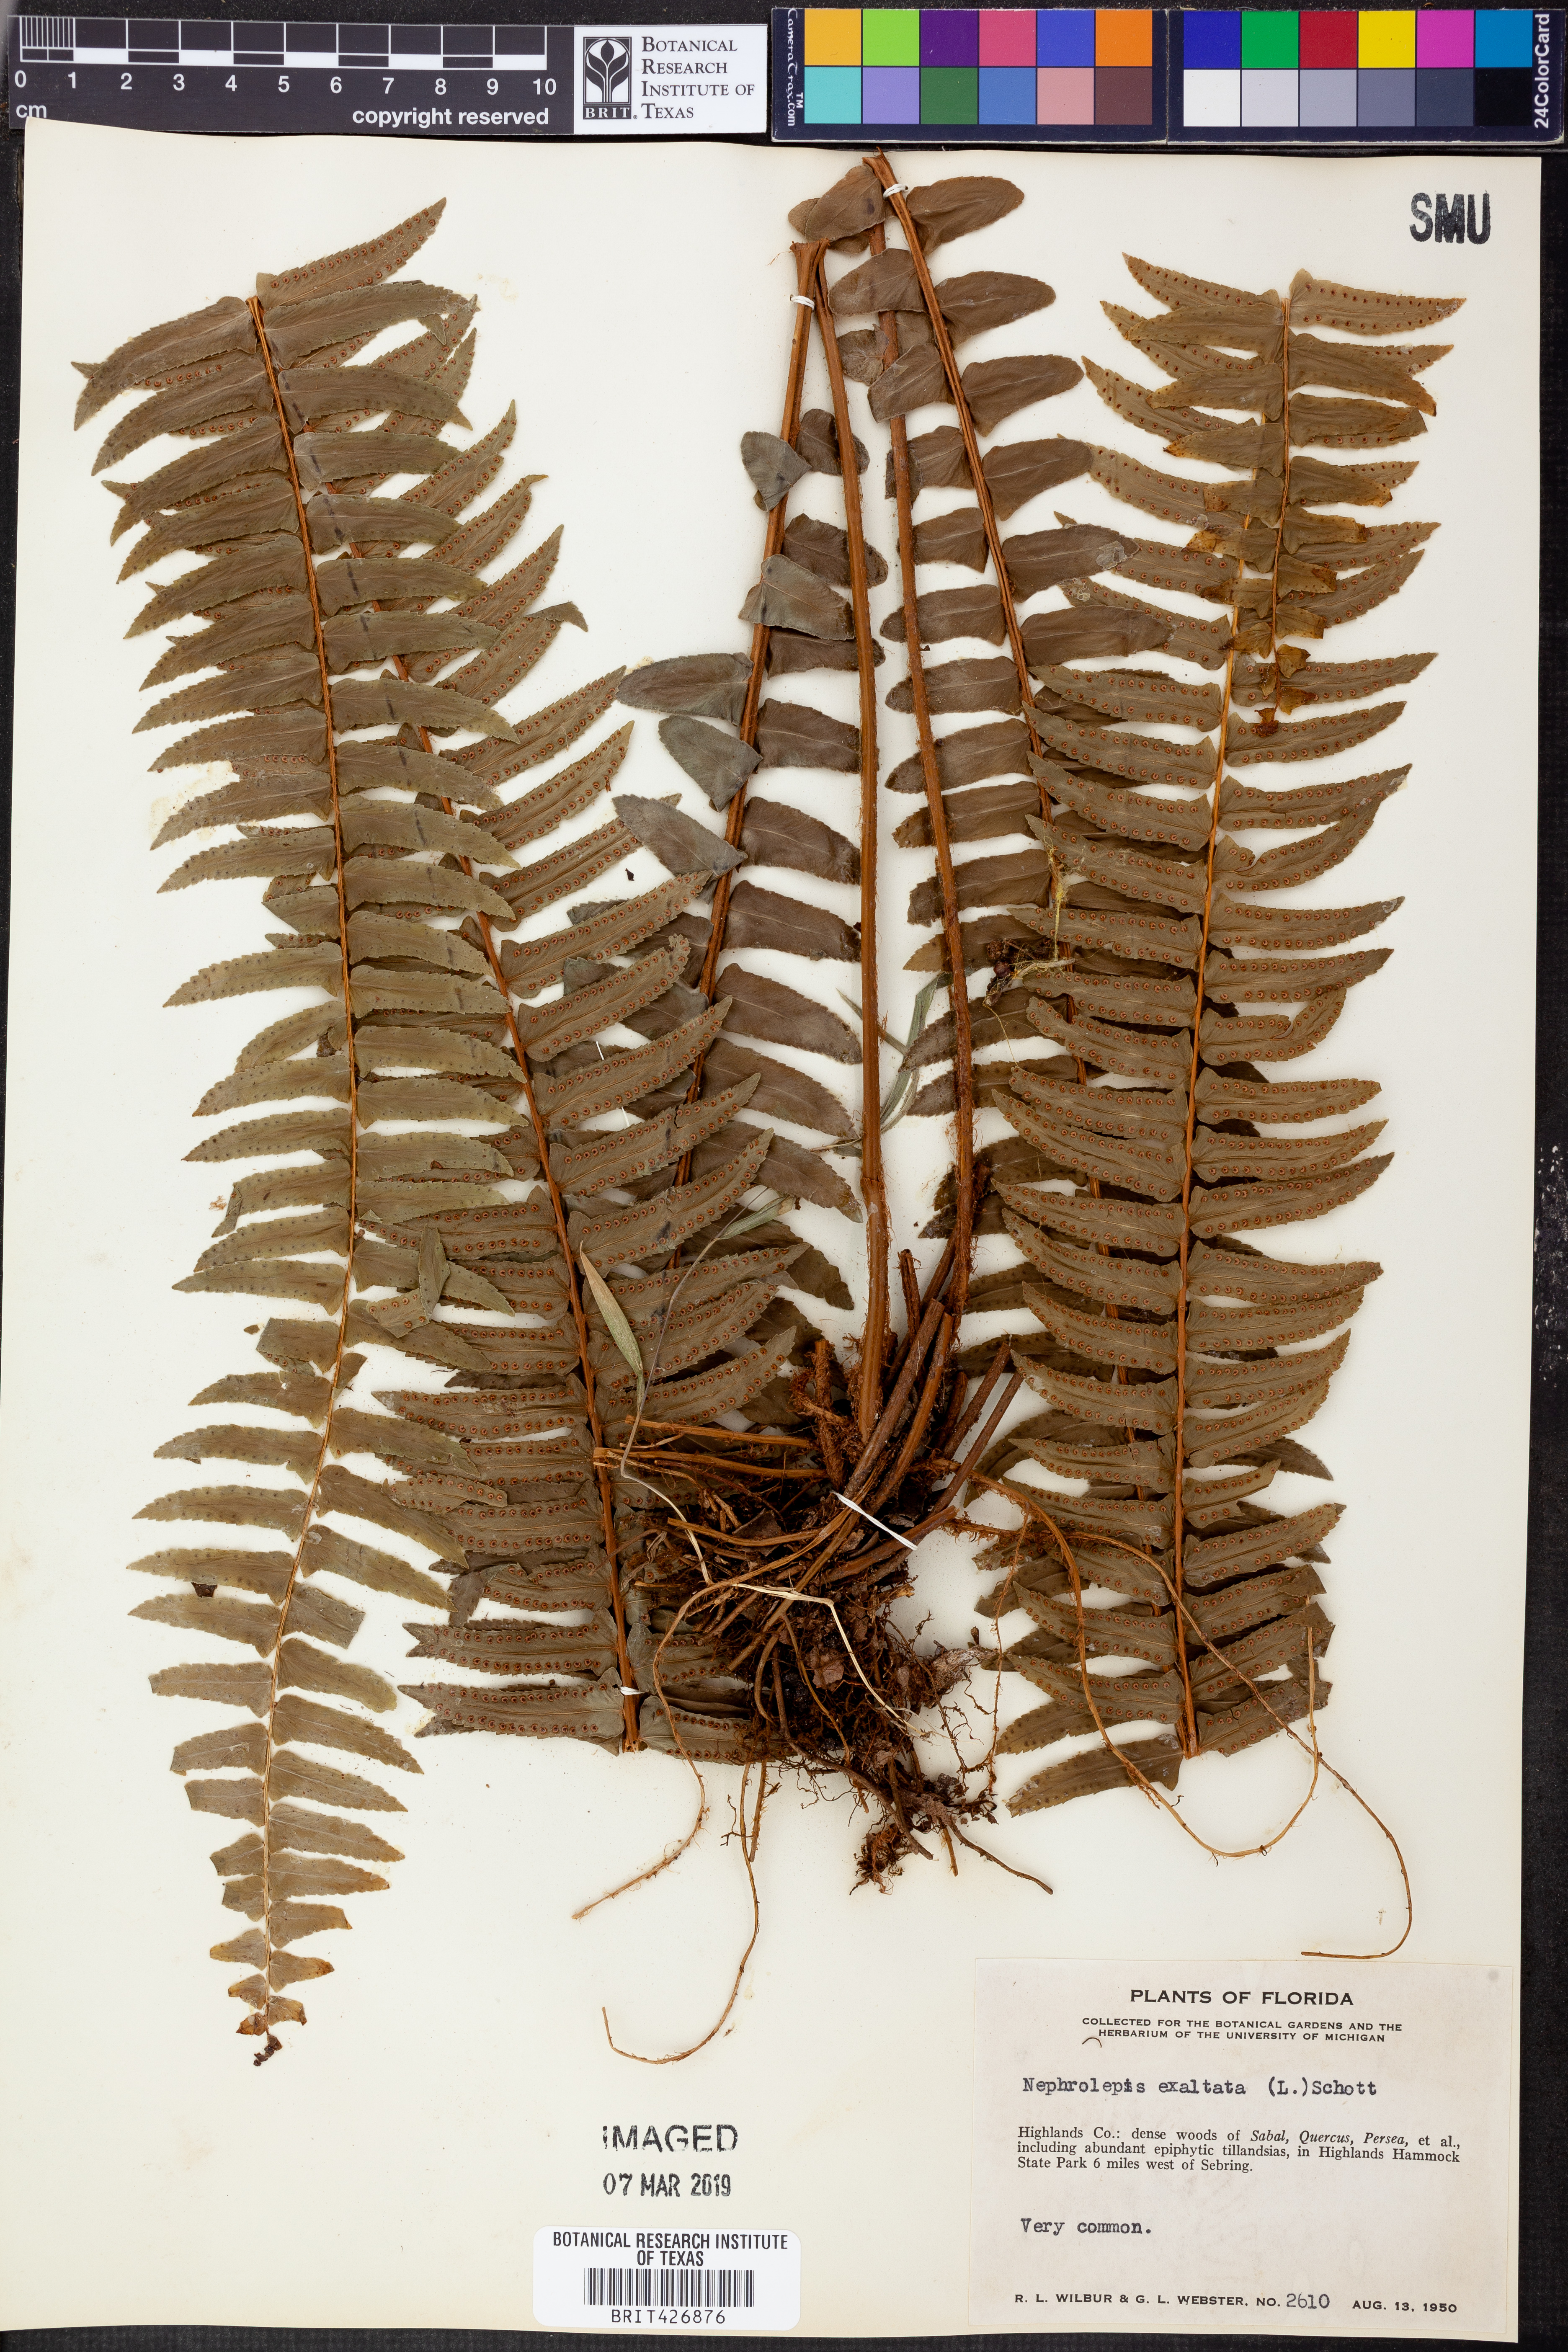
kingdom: Plantae
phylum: Tracheophyta
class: Polypodiopsida
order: Polypodiales
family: Nephrolepidaceae
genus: Nephrolepis
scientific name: Nephrolepis exaltata
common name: Sword fern
